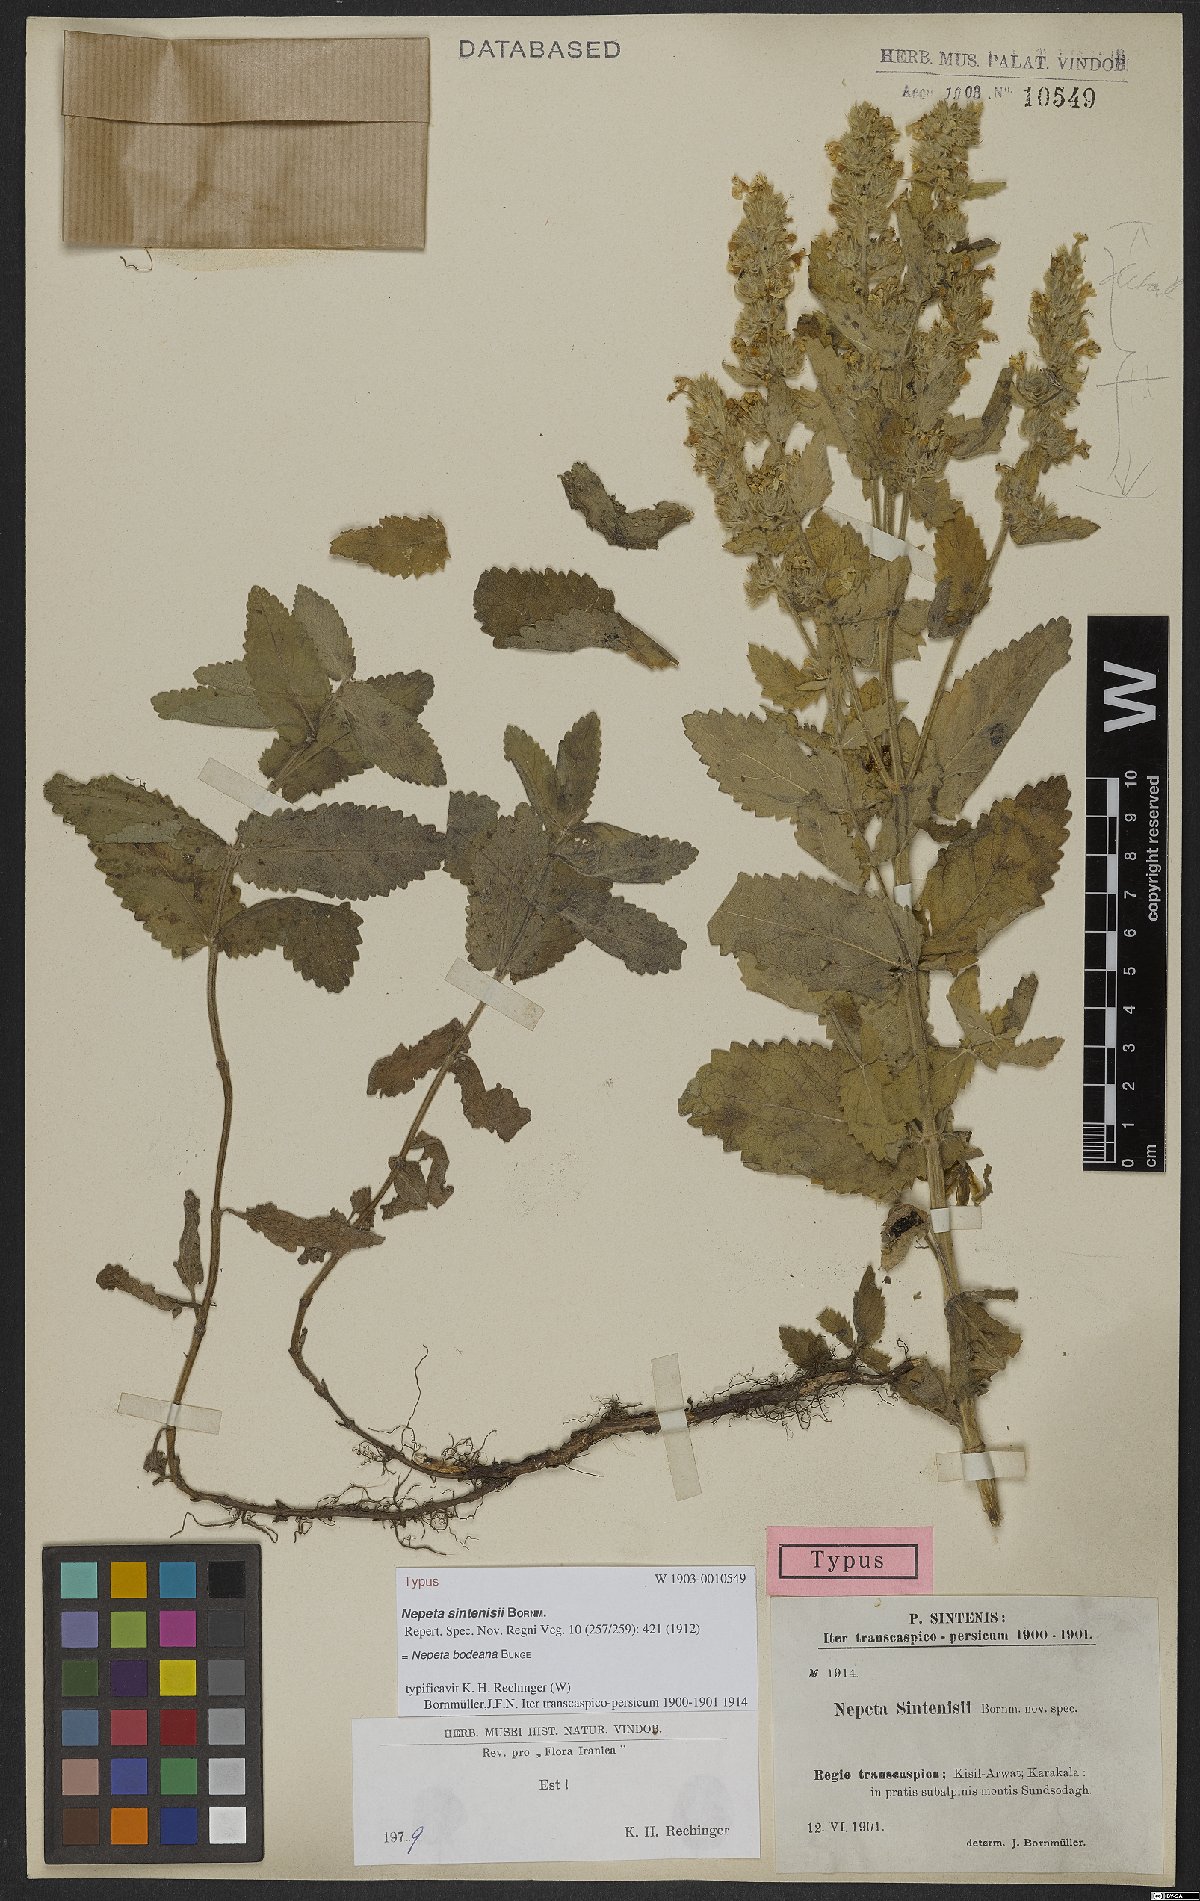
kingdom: Plantae
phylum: Tracheophyta
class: Magnoliopsida
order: Lamiales
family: Lamiaceae
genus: Nepeta
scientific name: Nepeta bodeana
